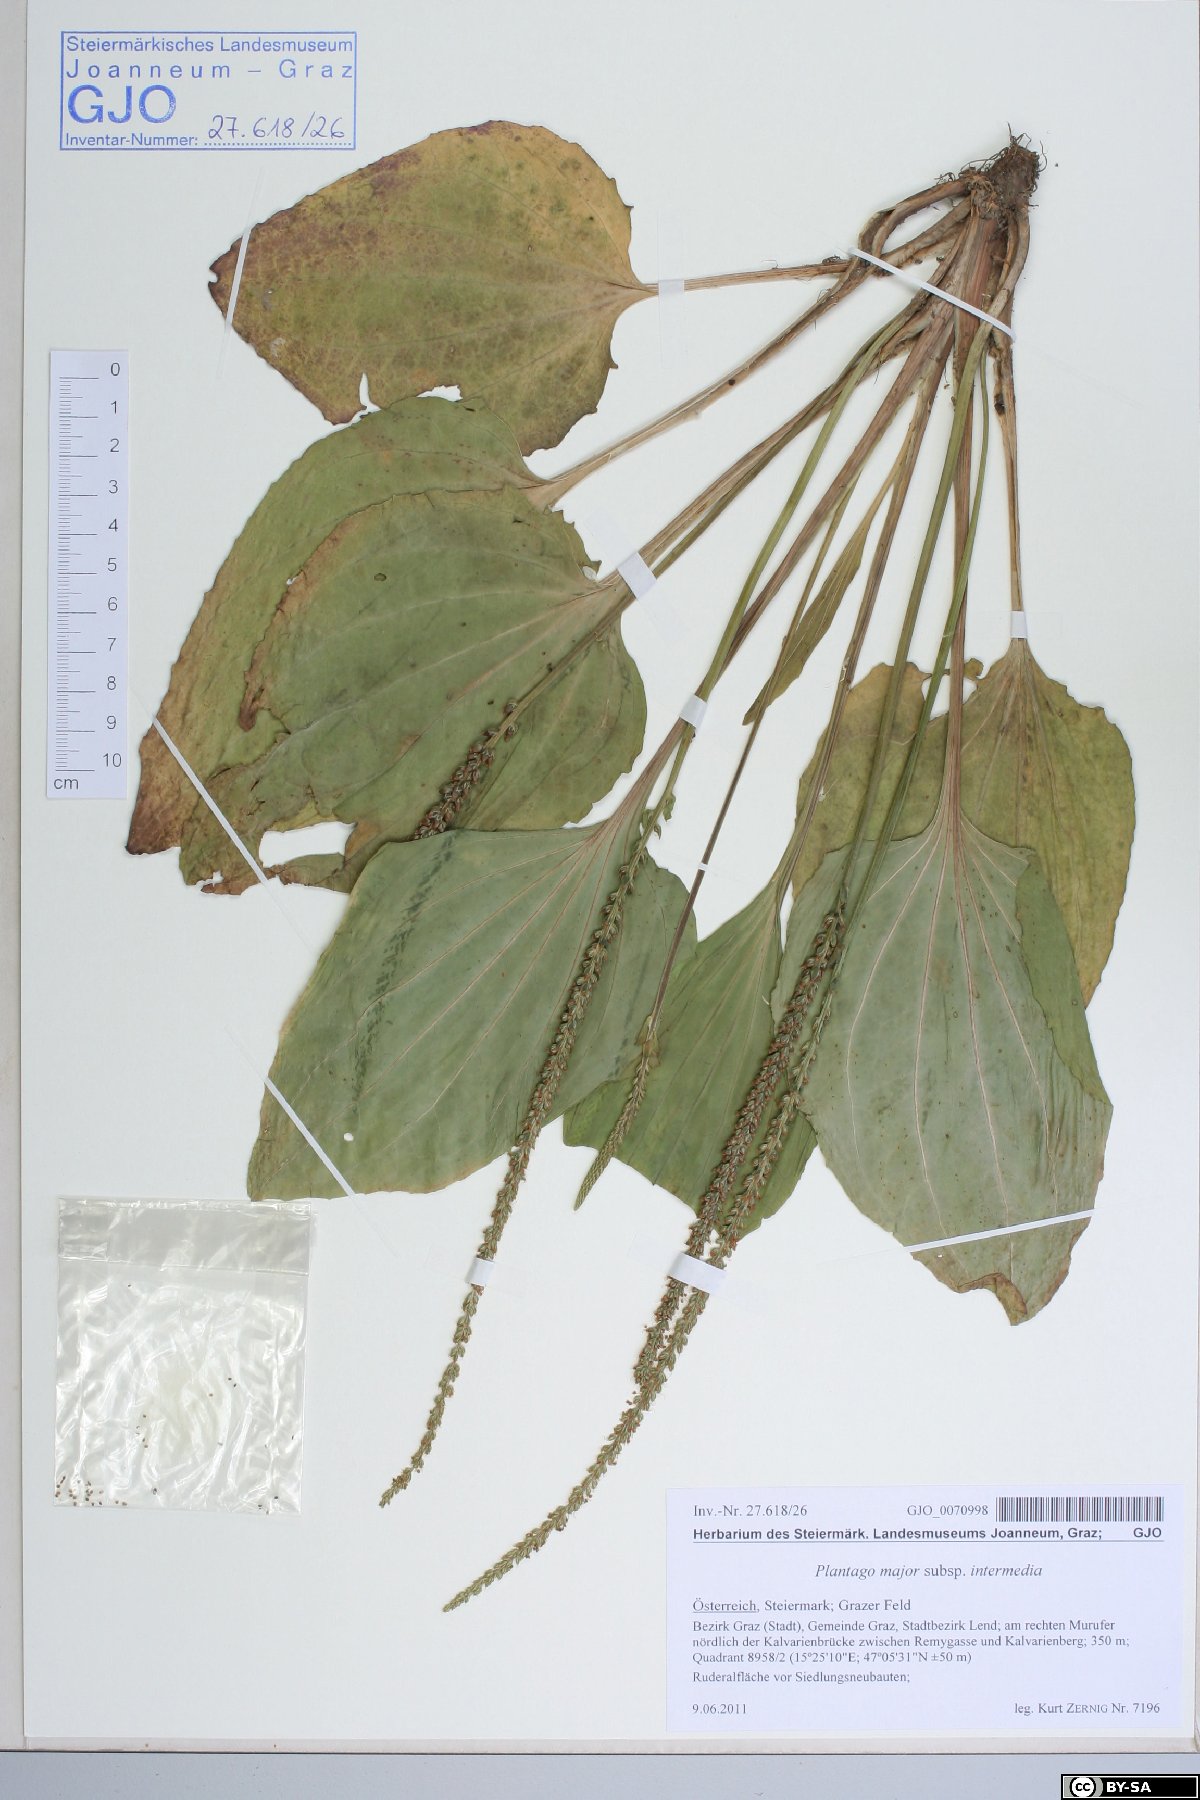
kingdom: Plantae
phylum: Tracheophyta
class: Magnoliopsida
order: Lamiales
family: Plantaginaceae
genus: Plantago
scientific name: Plantago uliginosa
